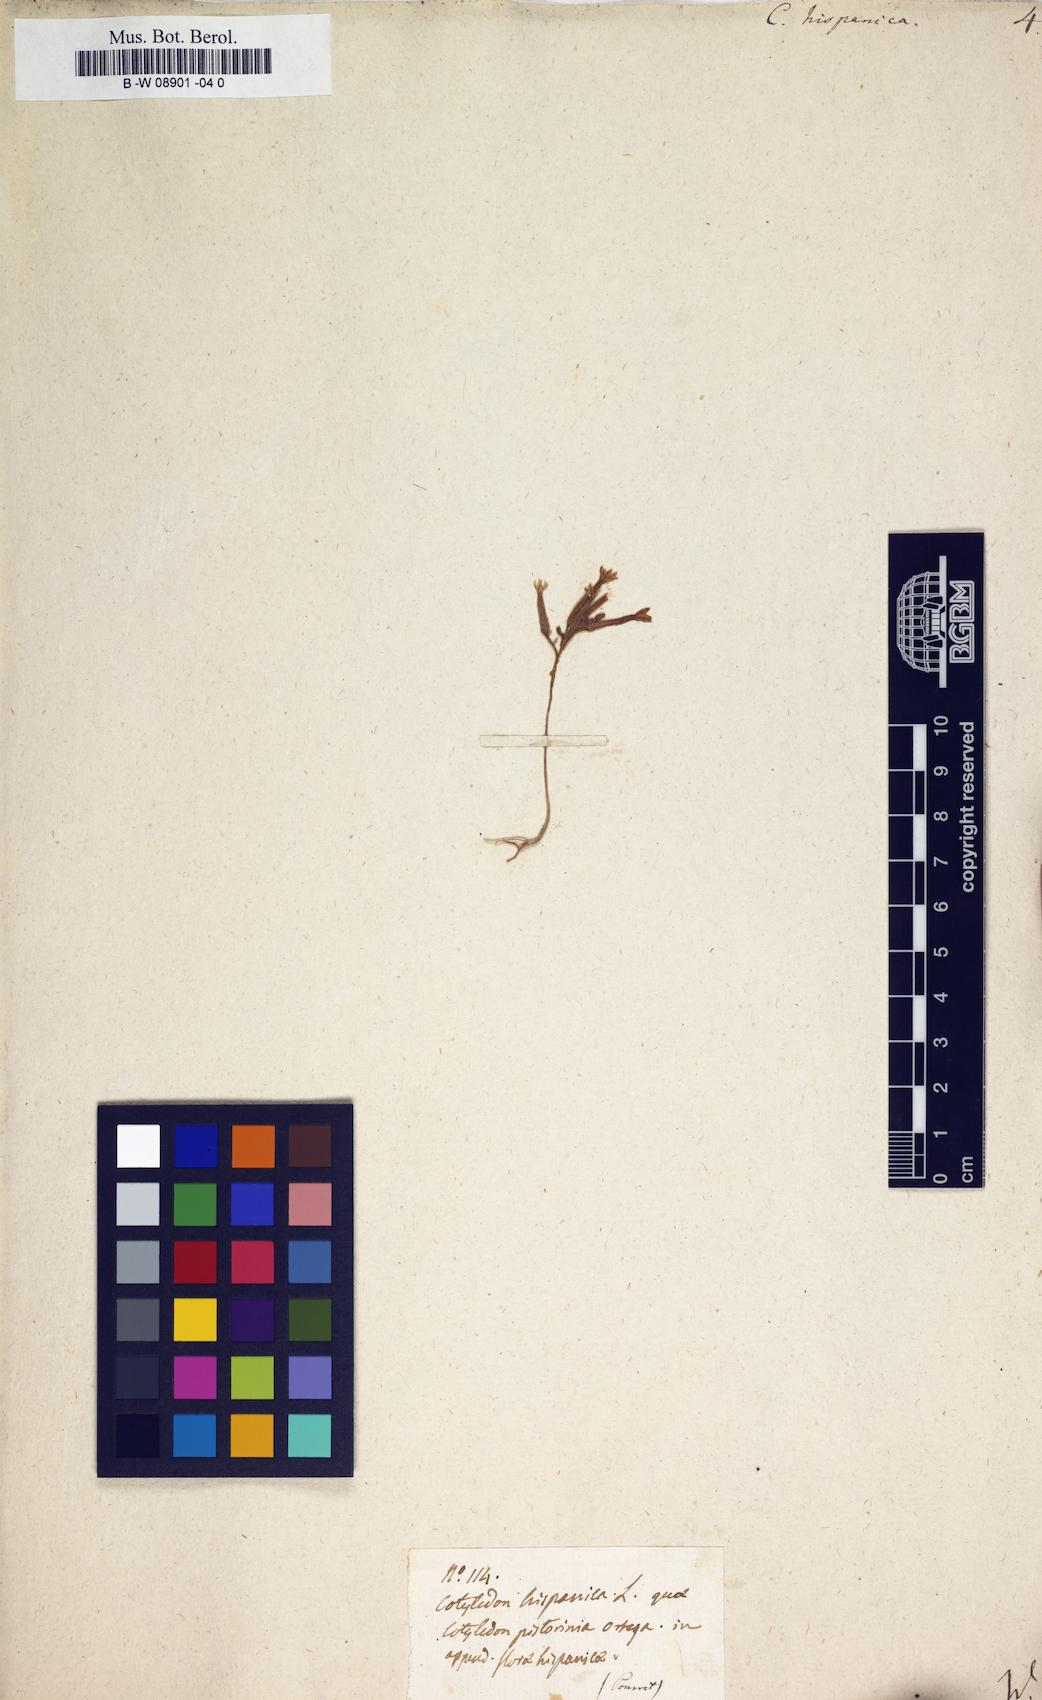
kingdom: Plantae
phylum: Tracheophyta
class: Magnoliopsida
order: Saxifragales
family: Crassulaceae
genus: Pistorinia
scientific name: Pistorinia
